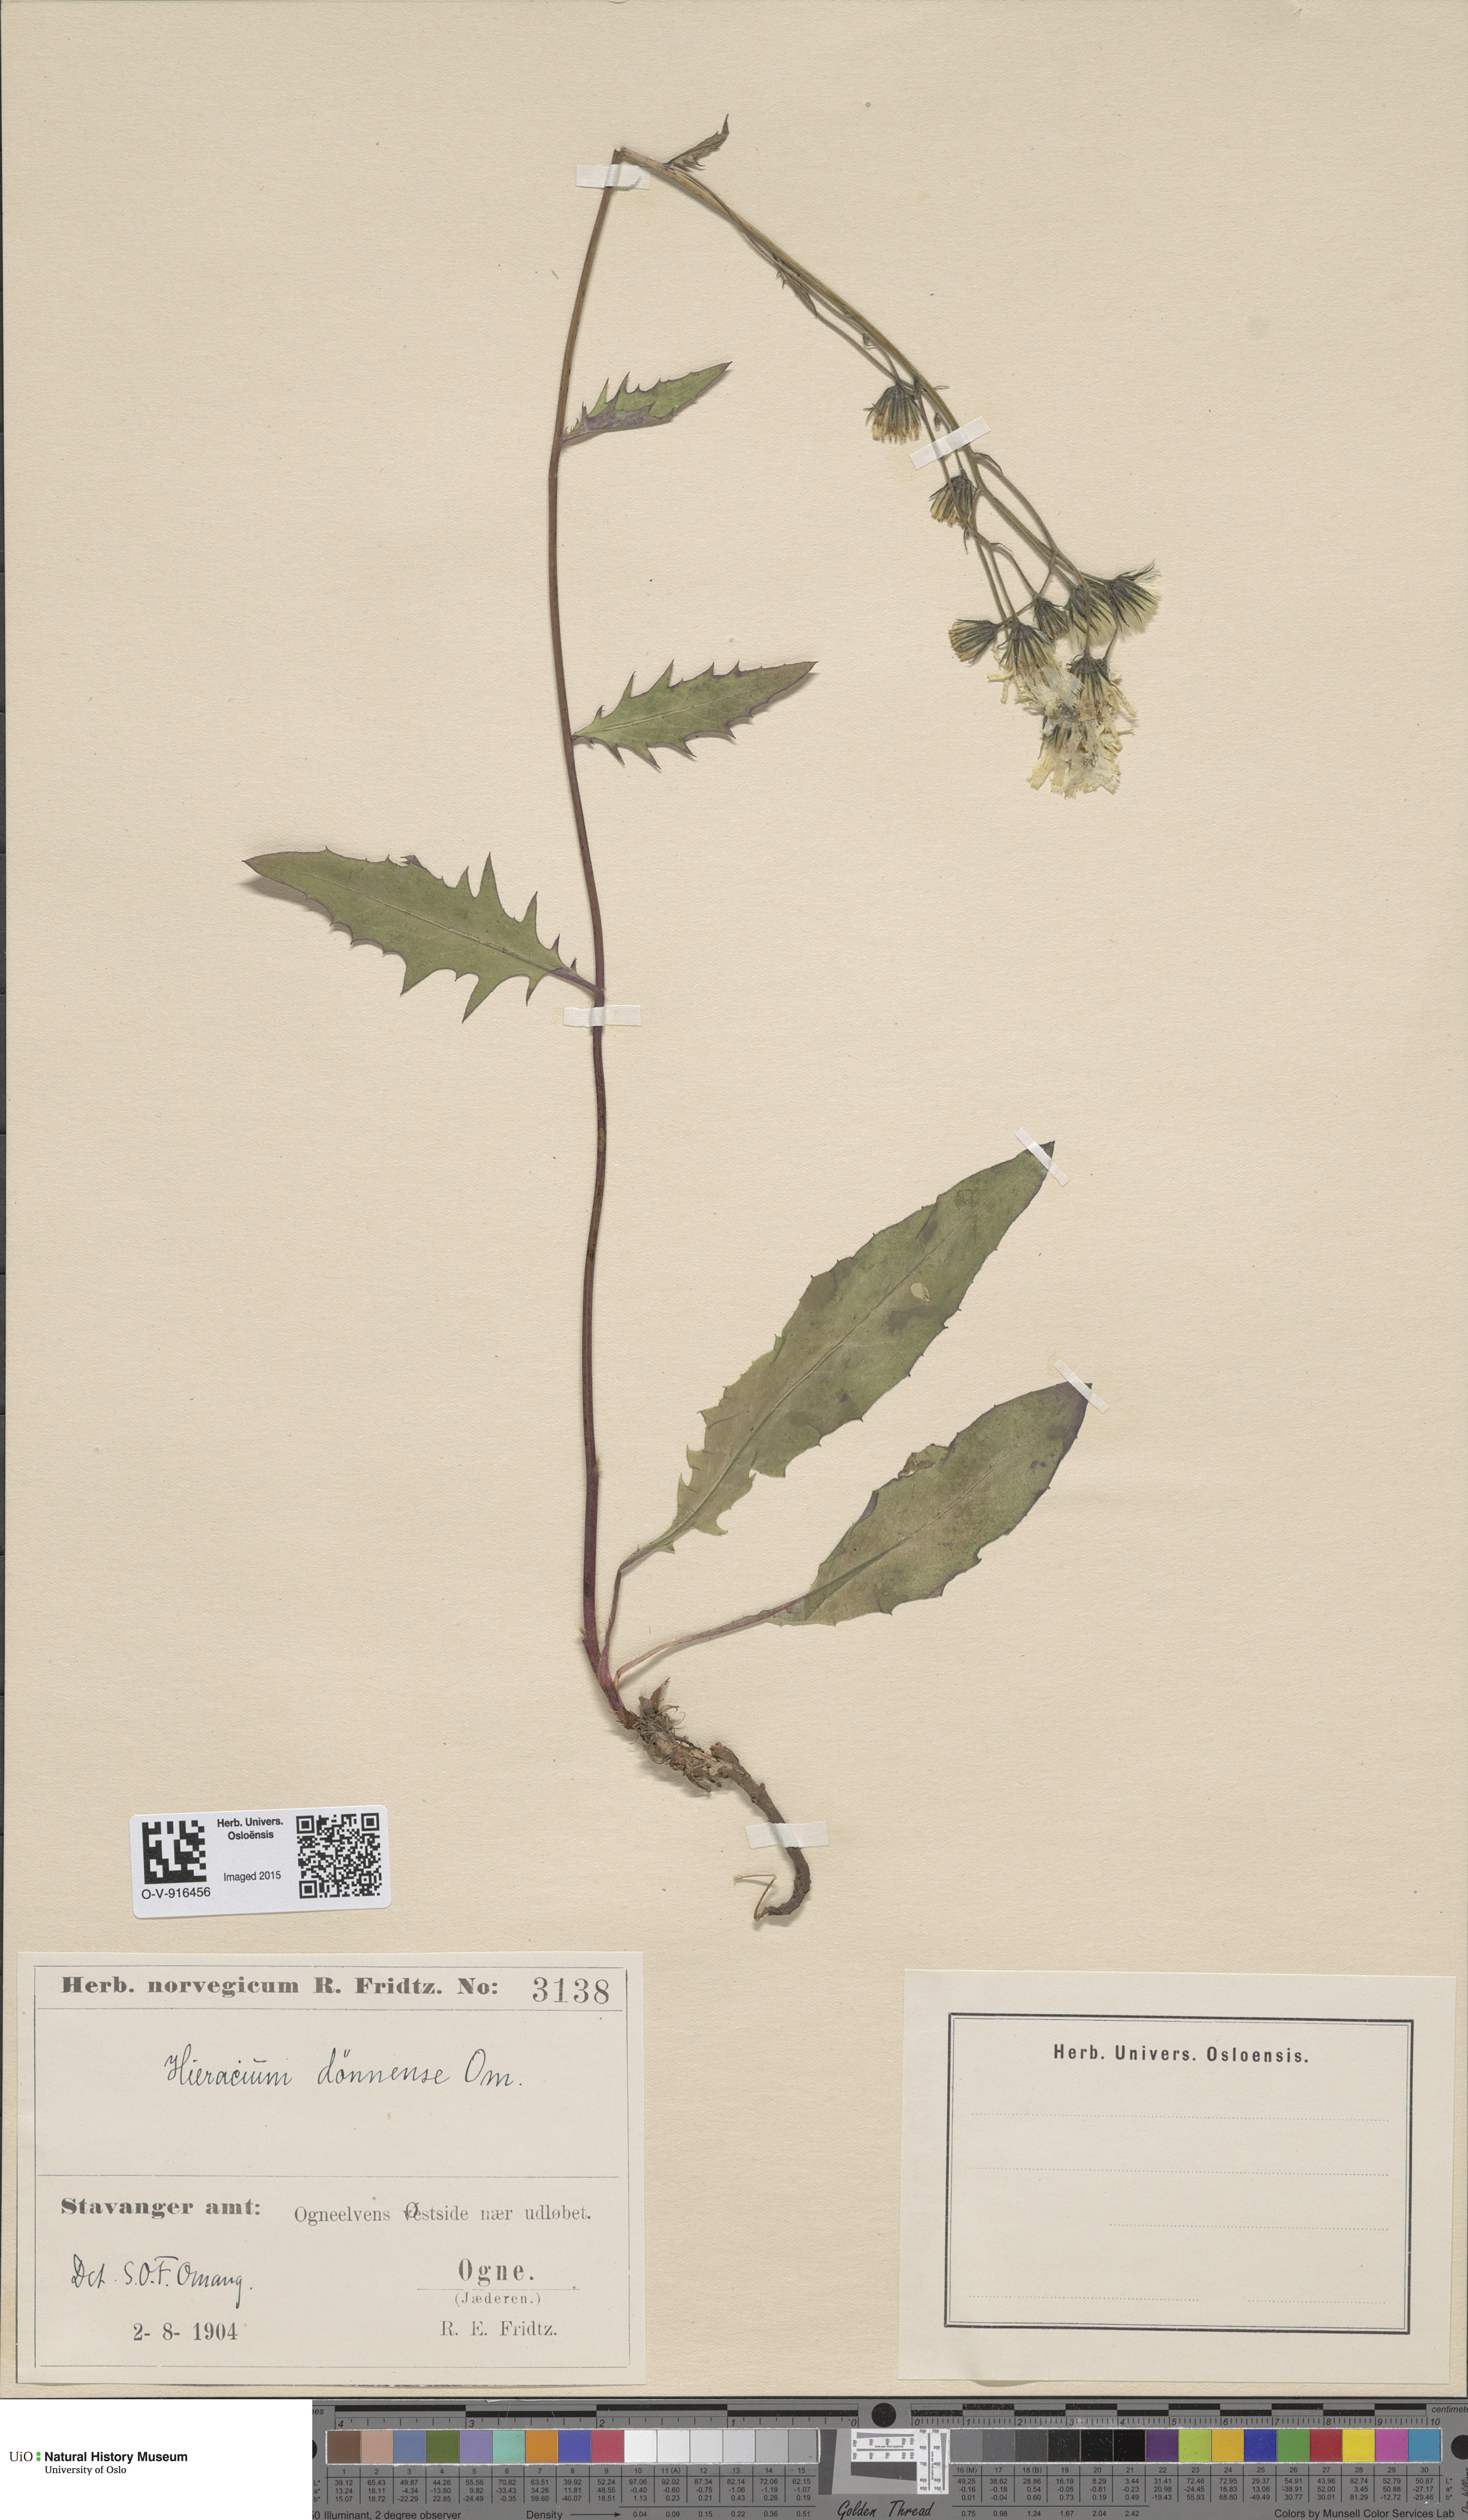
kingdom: Plantae
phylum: Tracheophyta
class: Magnoliopsida
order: Asterales
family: Asteraceae
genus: Hieracium
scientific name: Hieracium
